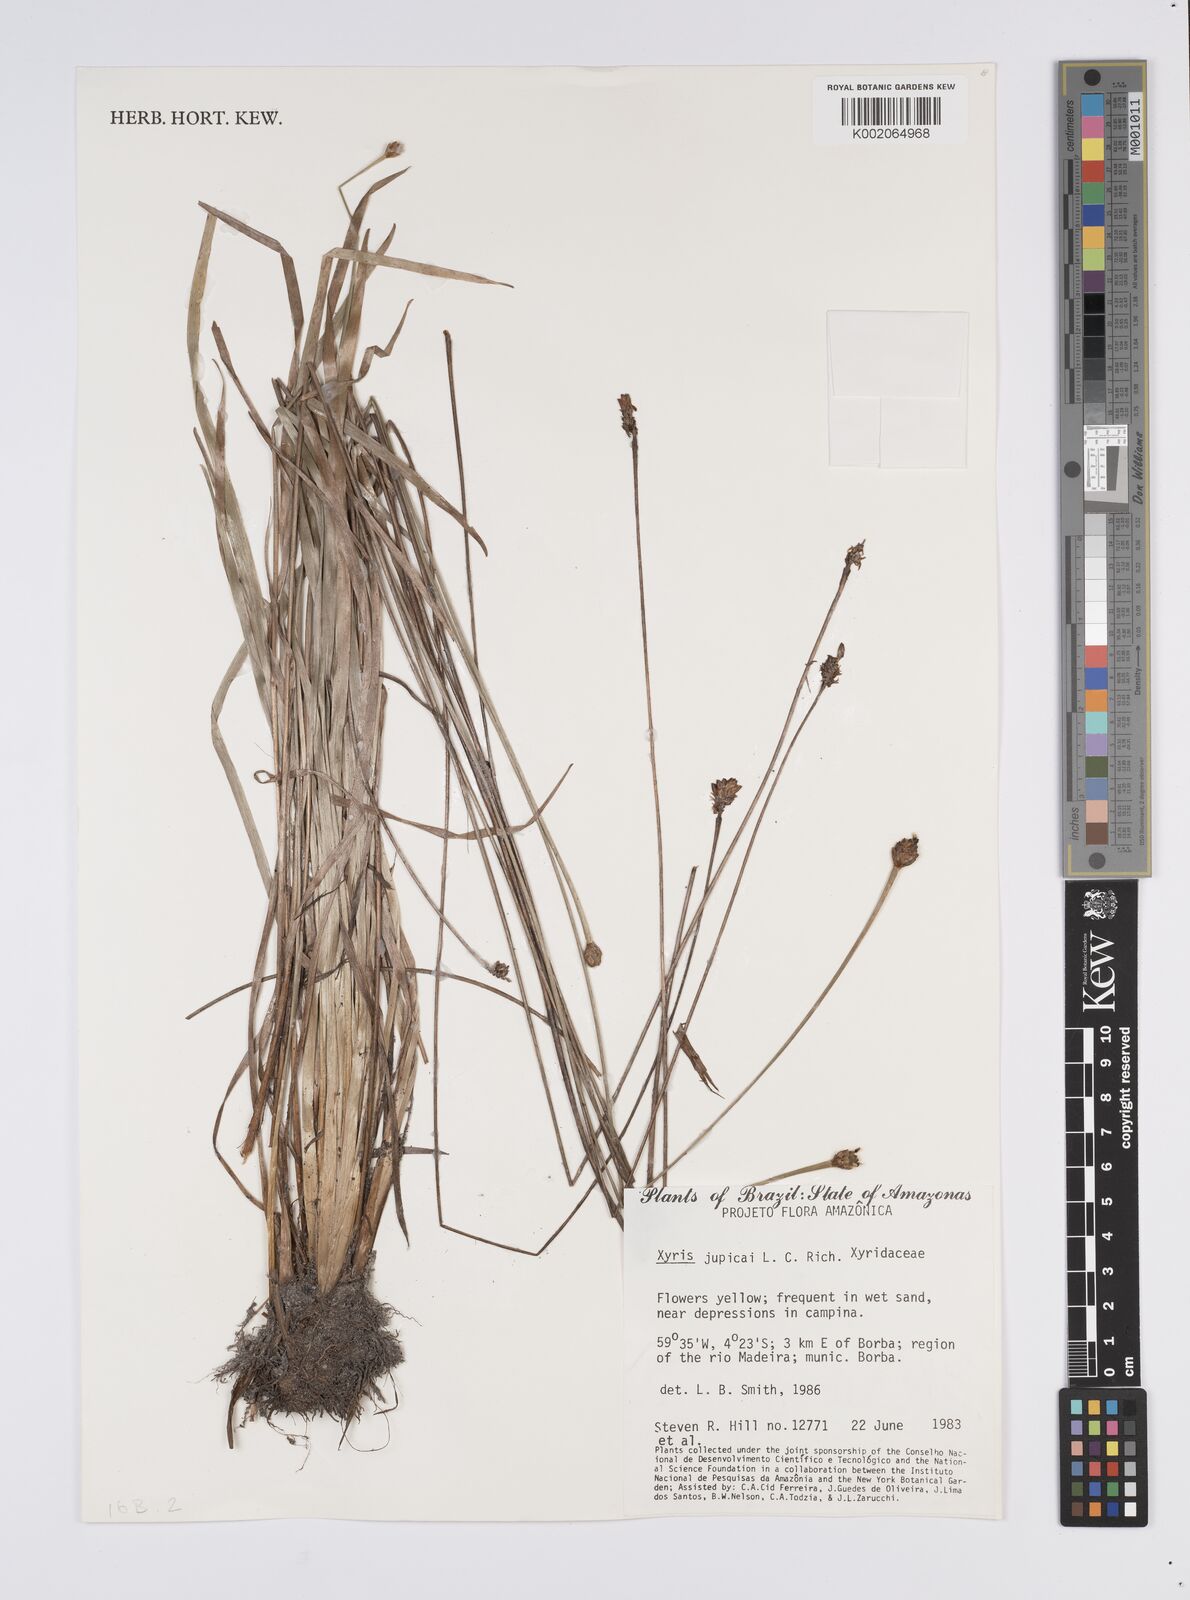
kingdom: Plantae
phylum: Tracheophyta
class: Liliopsida
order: Poales
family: Xyridaceae
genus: Xyris
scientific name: Xyris jupicai
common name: Richard's yelloweyed grass
